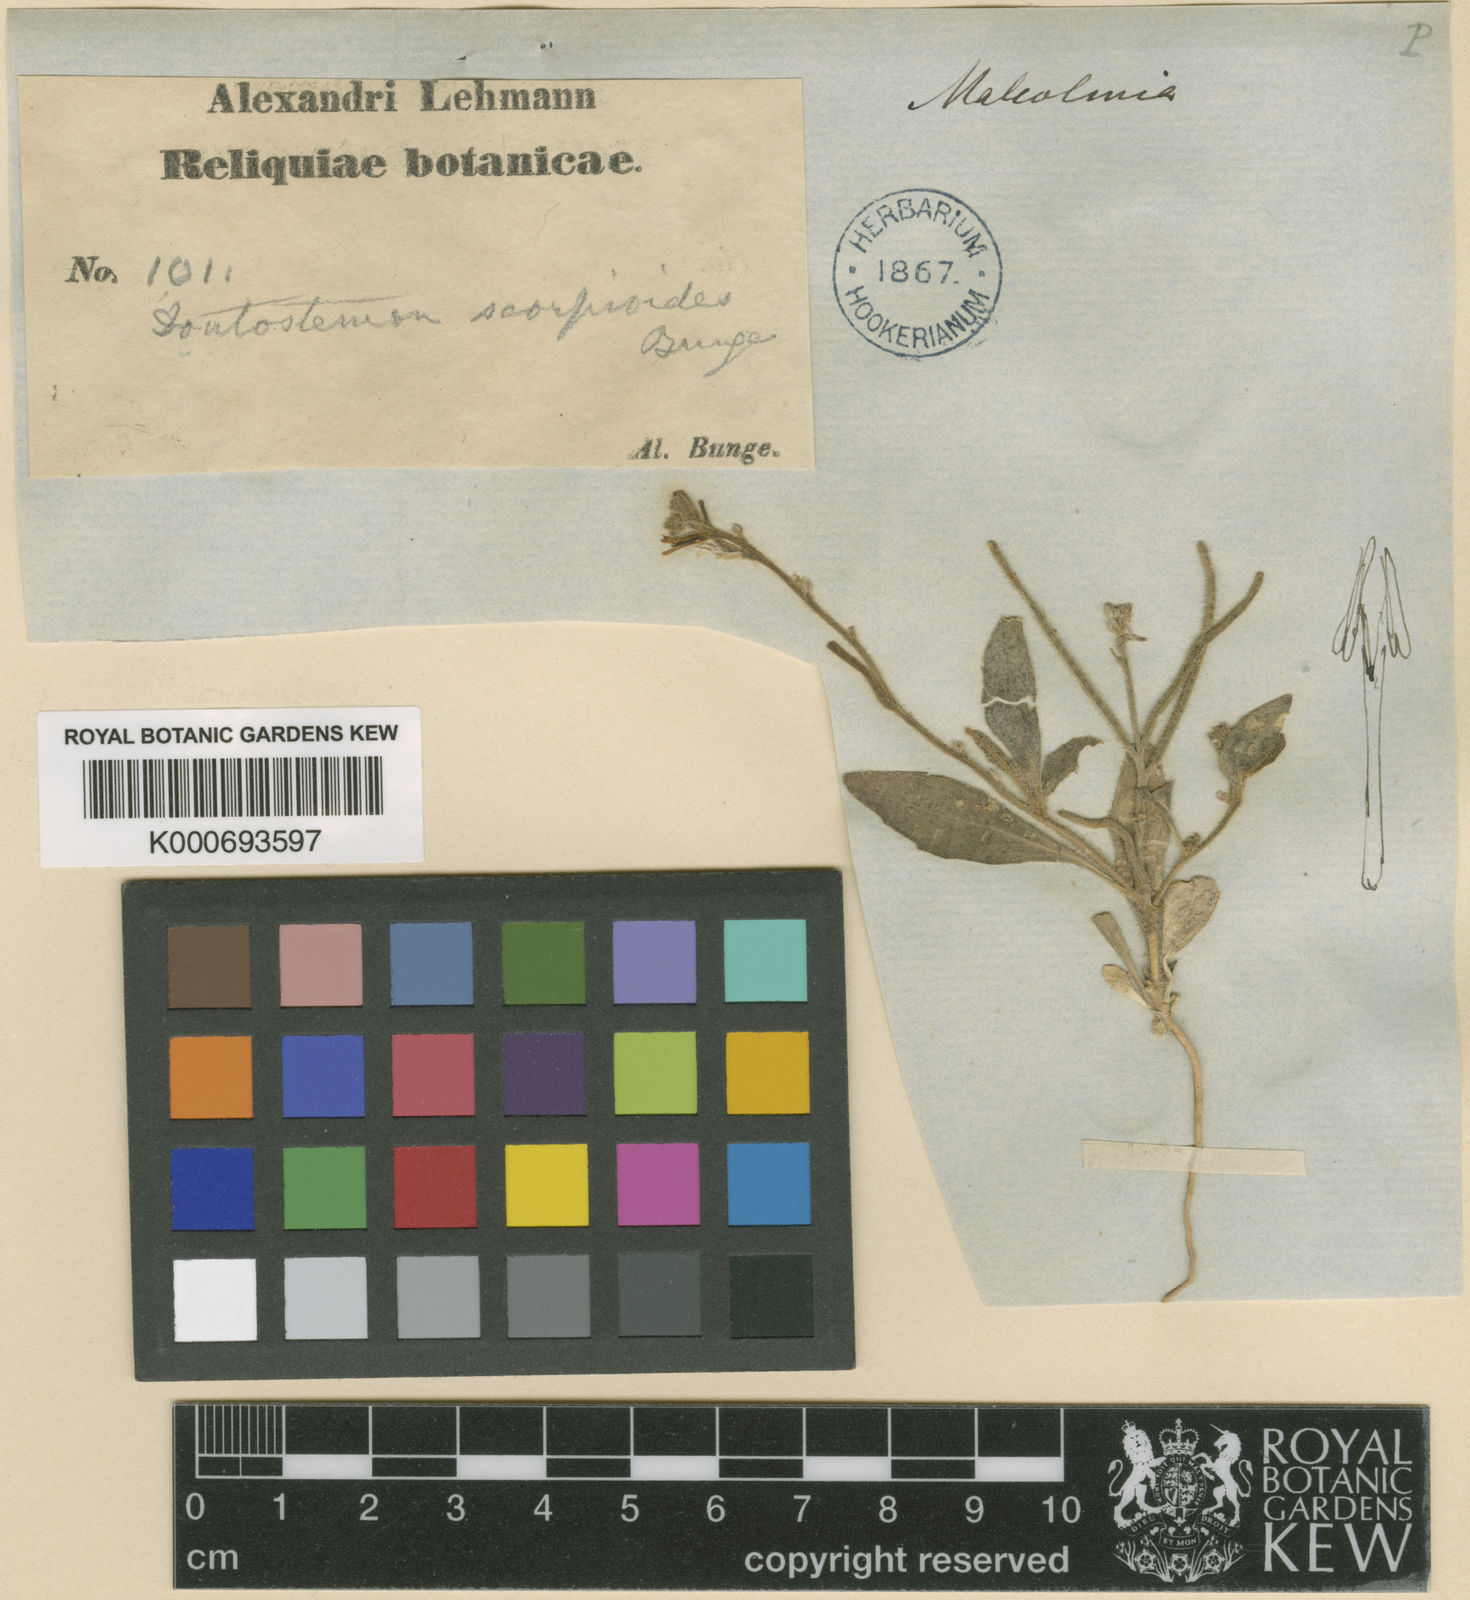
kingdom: Plantae
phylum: Tracheophyta
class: Magnoliopsida
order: Brassicales
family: Brassicaceae
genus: Strigosella
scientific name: Strigosella scorpioides
